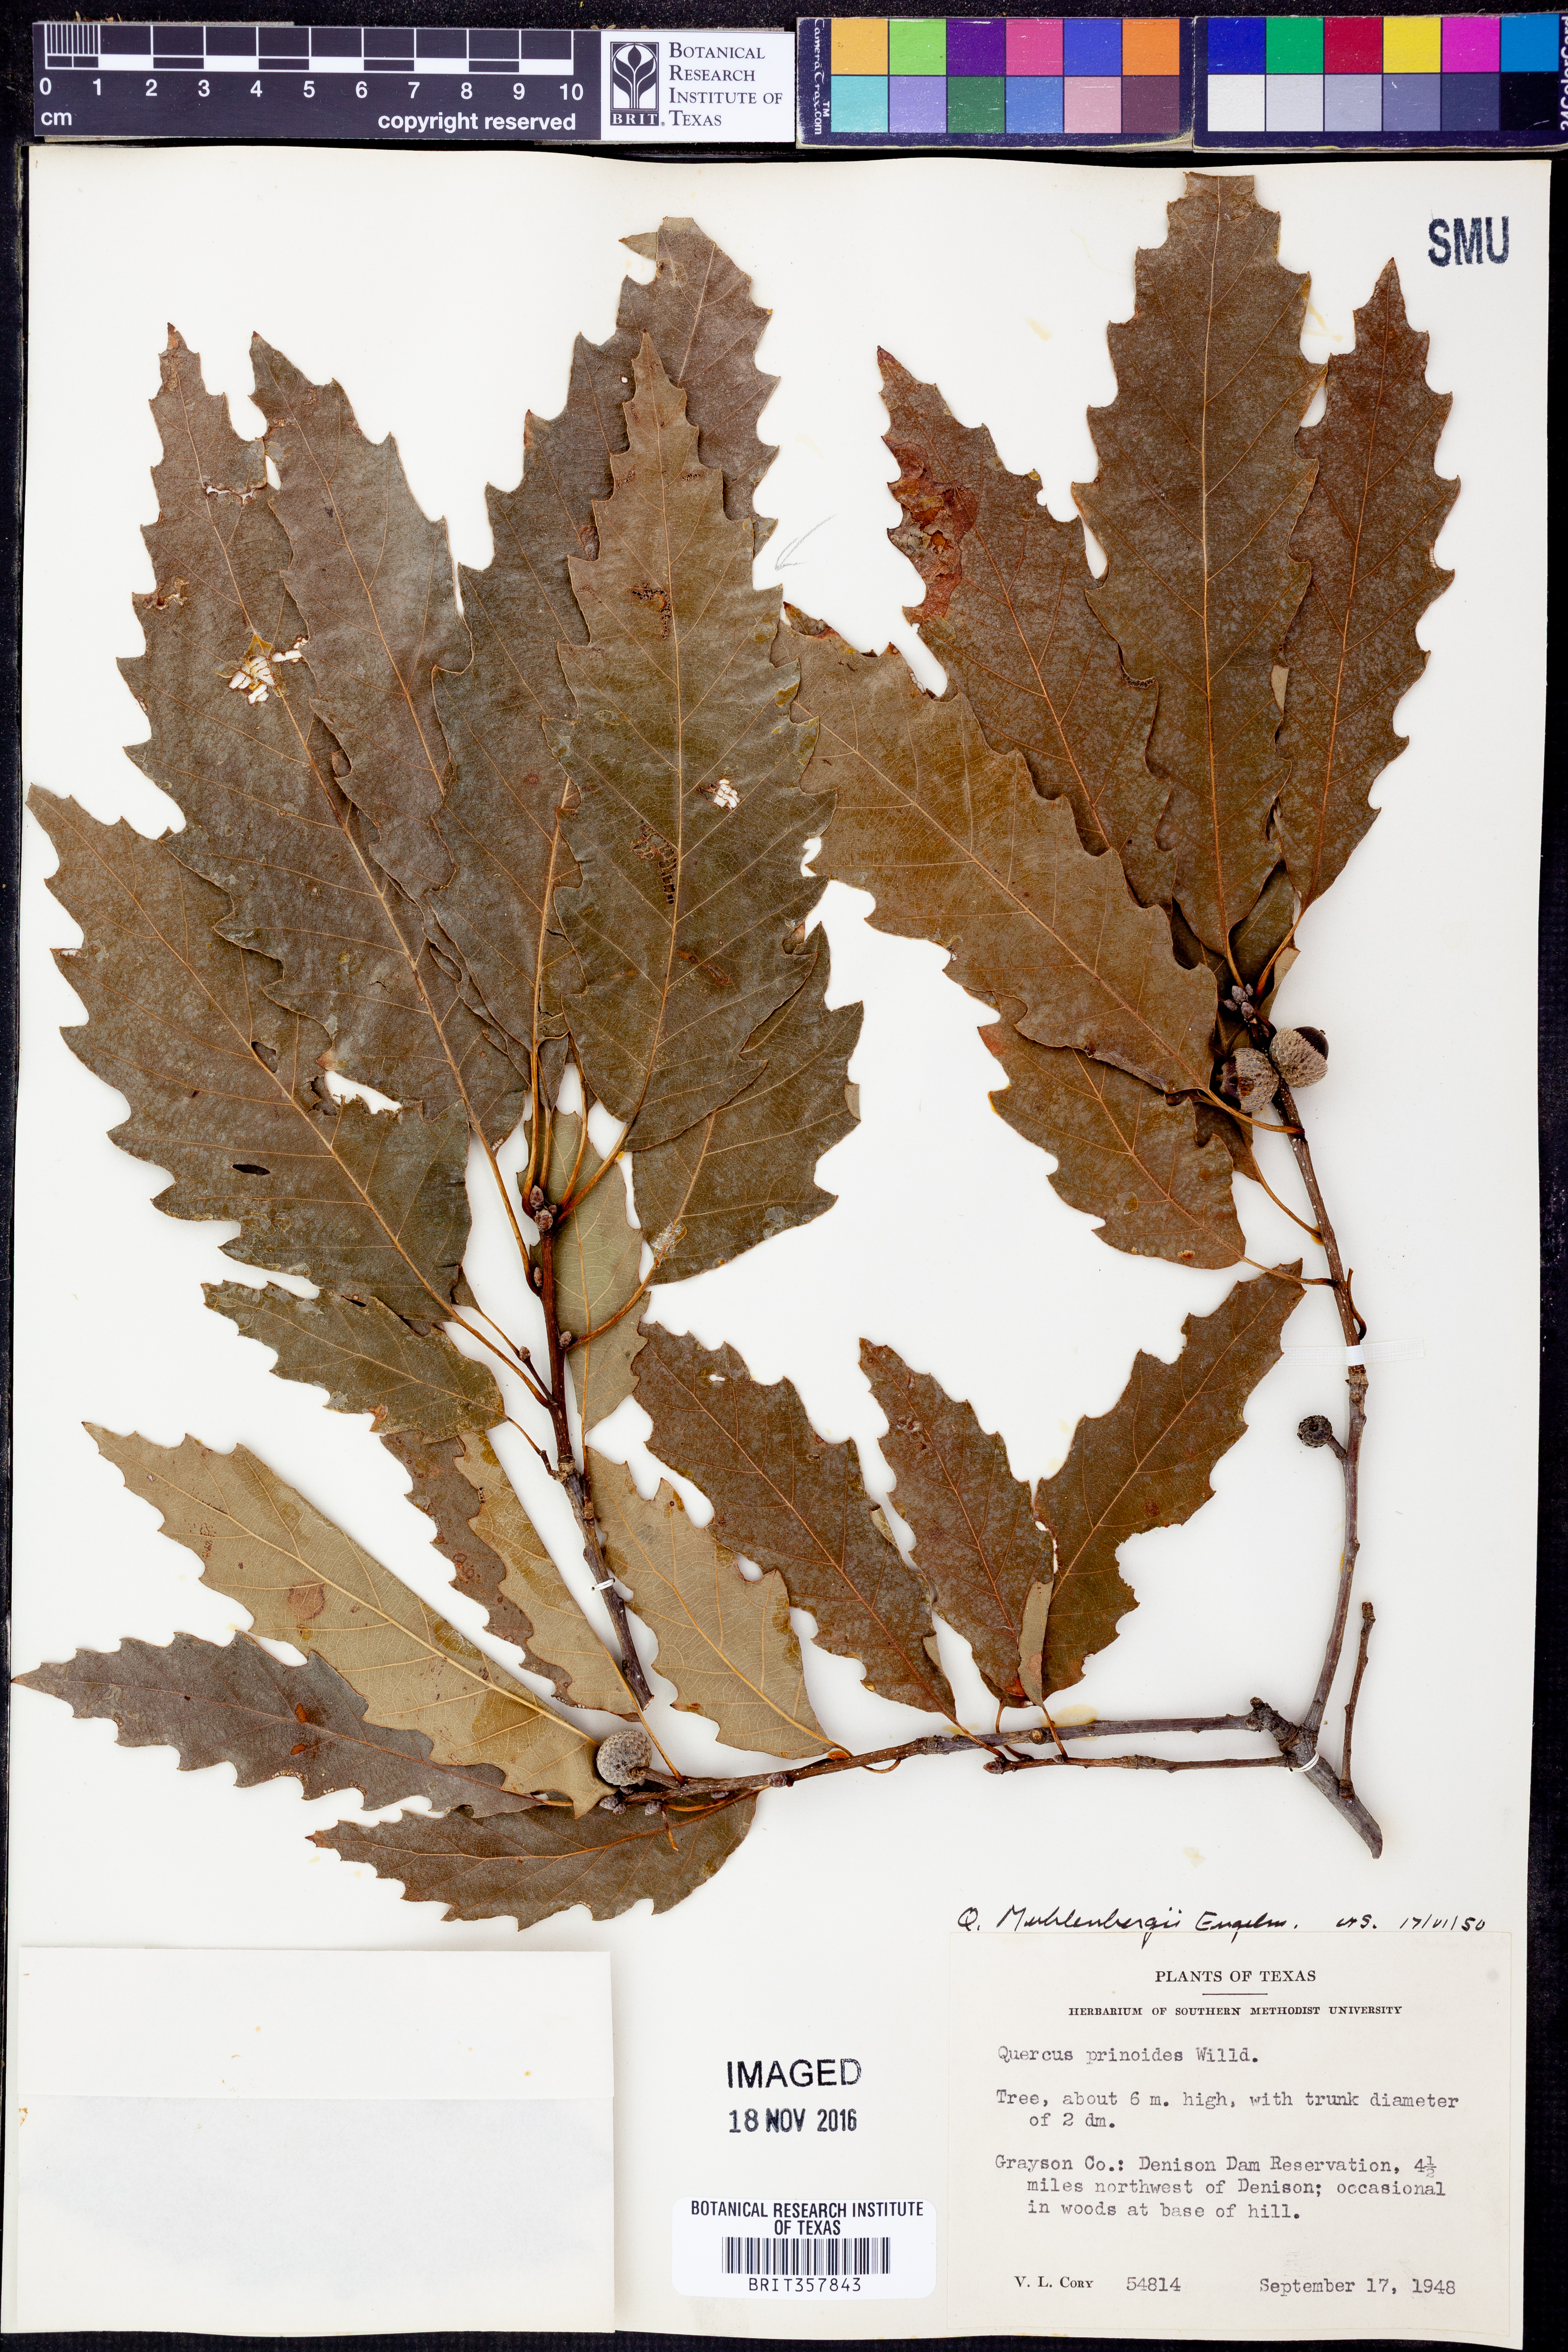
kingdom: Plantae
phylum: Tracheophyta
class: Magnoliopsida
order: Fagales
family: Fagaceae
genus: Quercus
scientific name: Quercus muehlenbergii
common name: Chinkapin oak
